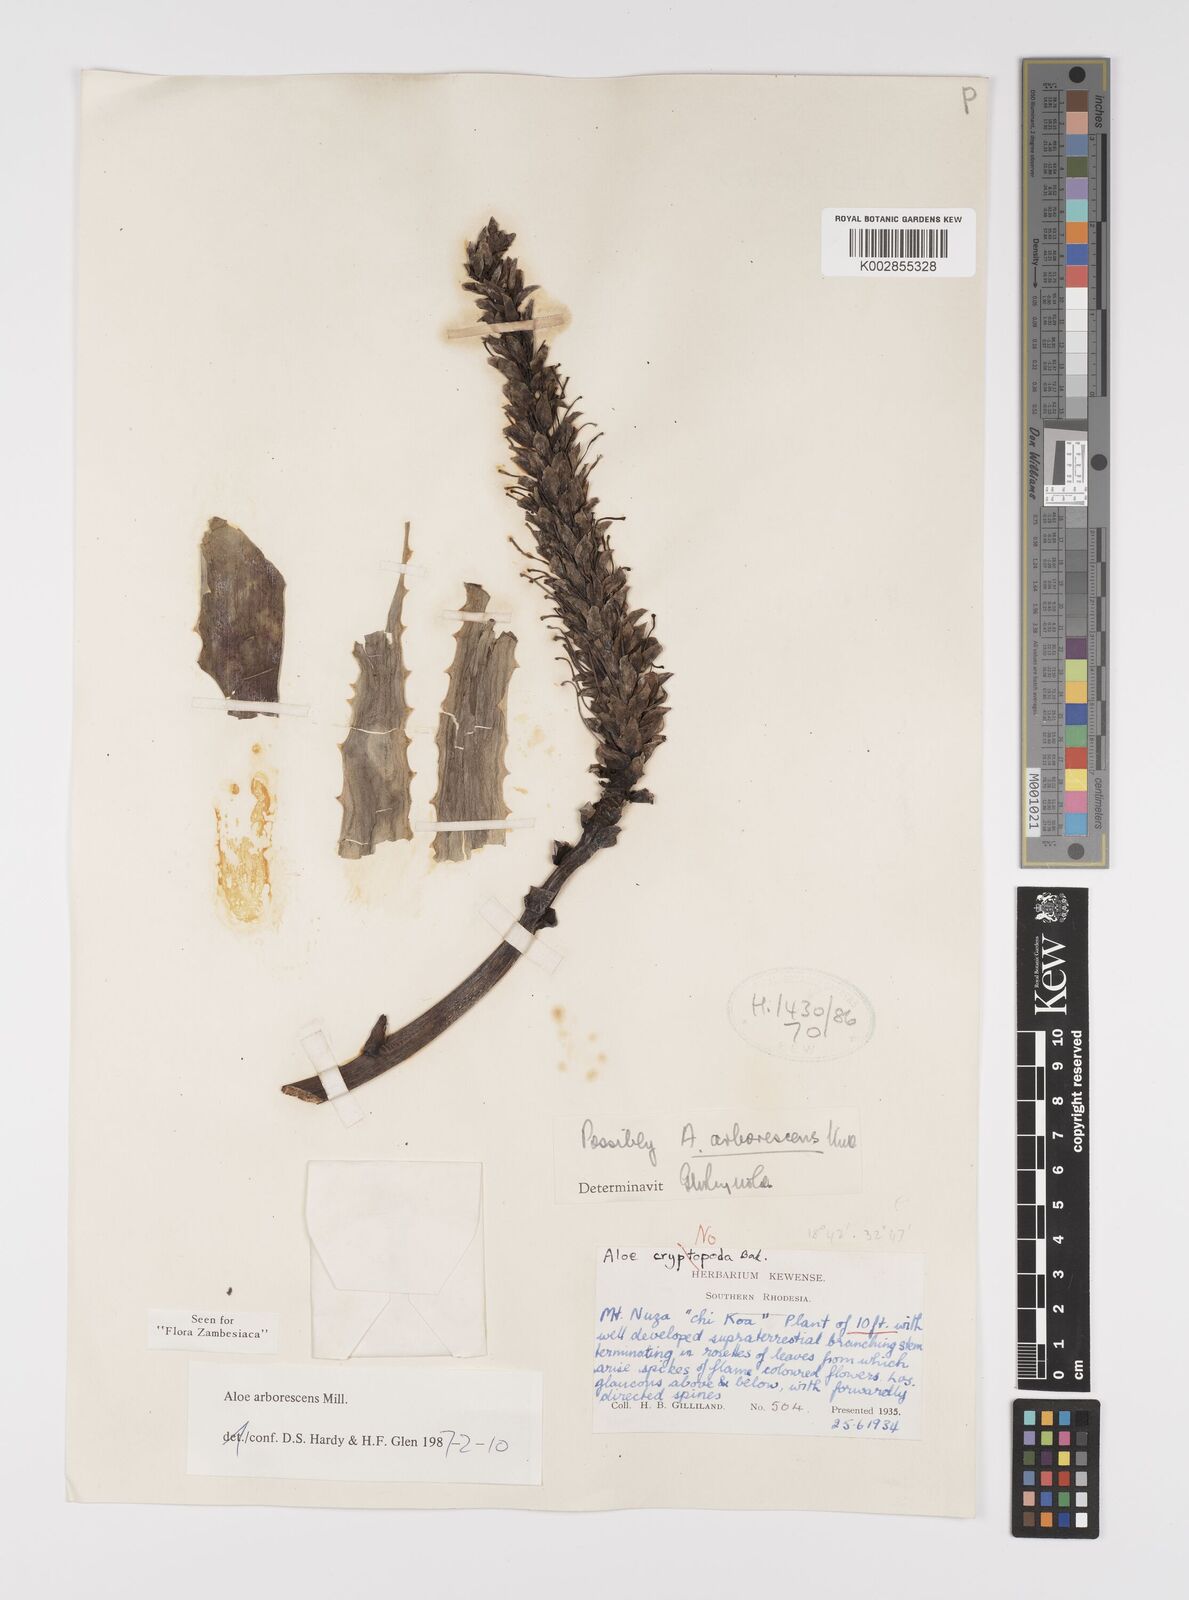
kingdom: Plantae
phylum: Tracheophyta
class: Liliopsida
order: Asparagales
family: Asphodelaceae
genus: Aloe
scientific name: Aloe arborescens
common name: Candelabra aloe
